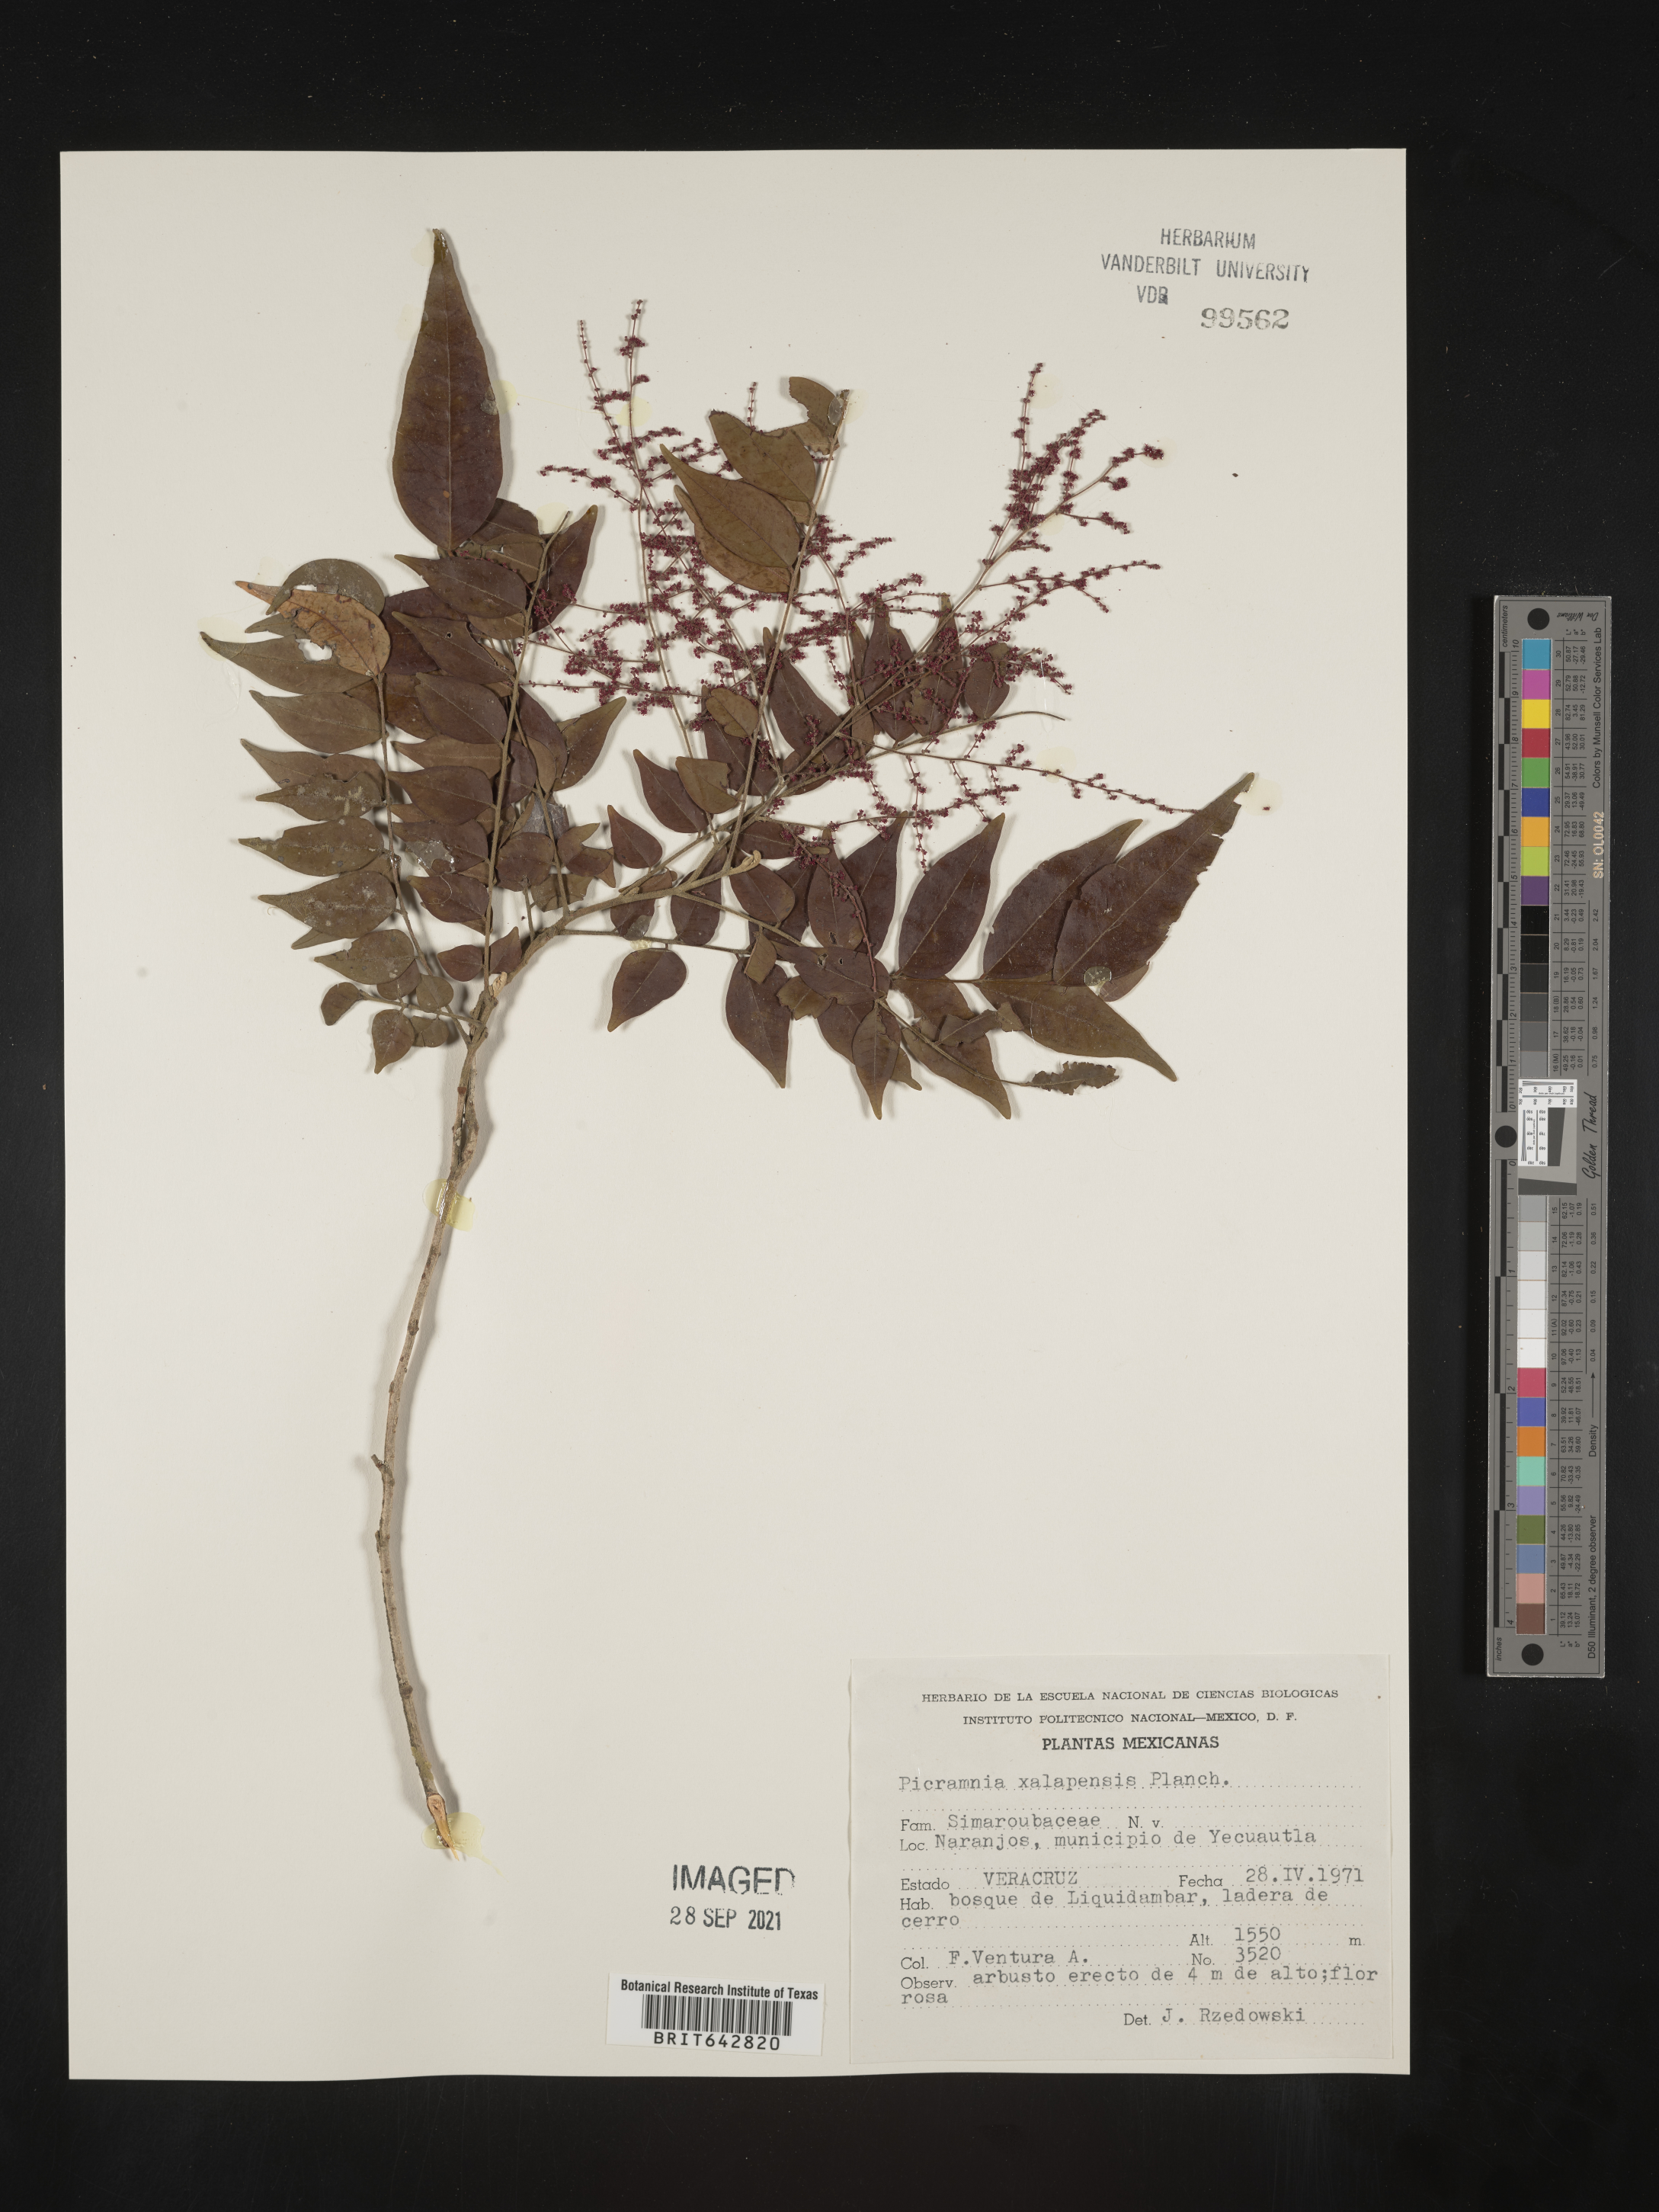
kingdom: Plantae
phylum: Tracheophyta
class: Magnoliopsida
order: Picramniales
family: Picramniaceae
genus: Picramnia
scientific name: Picramnia
